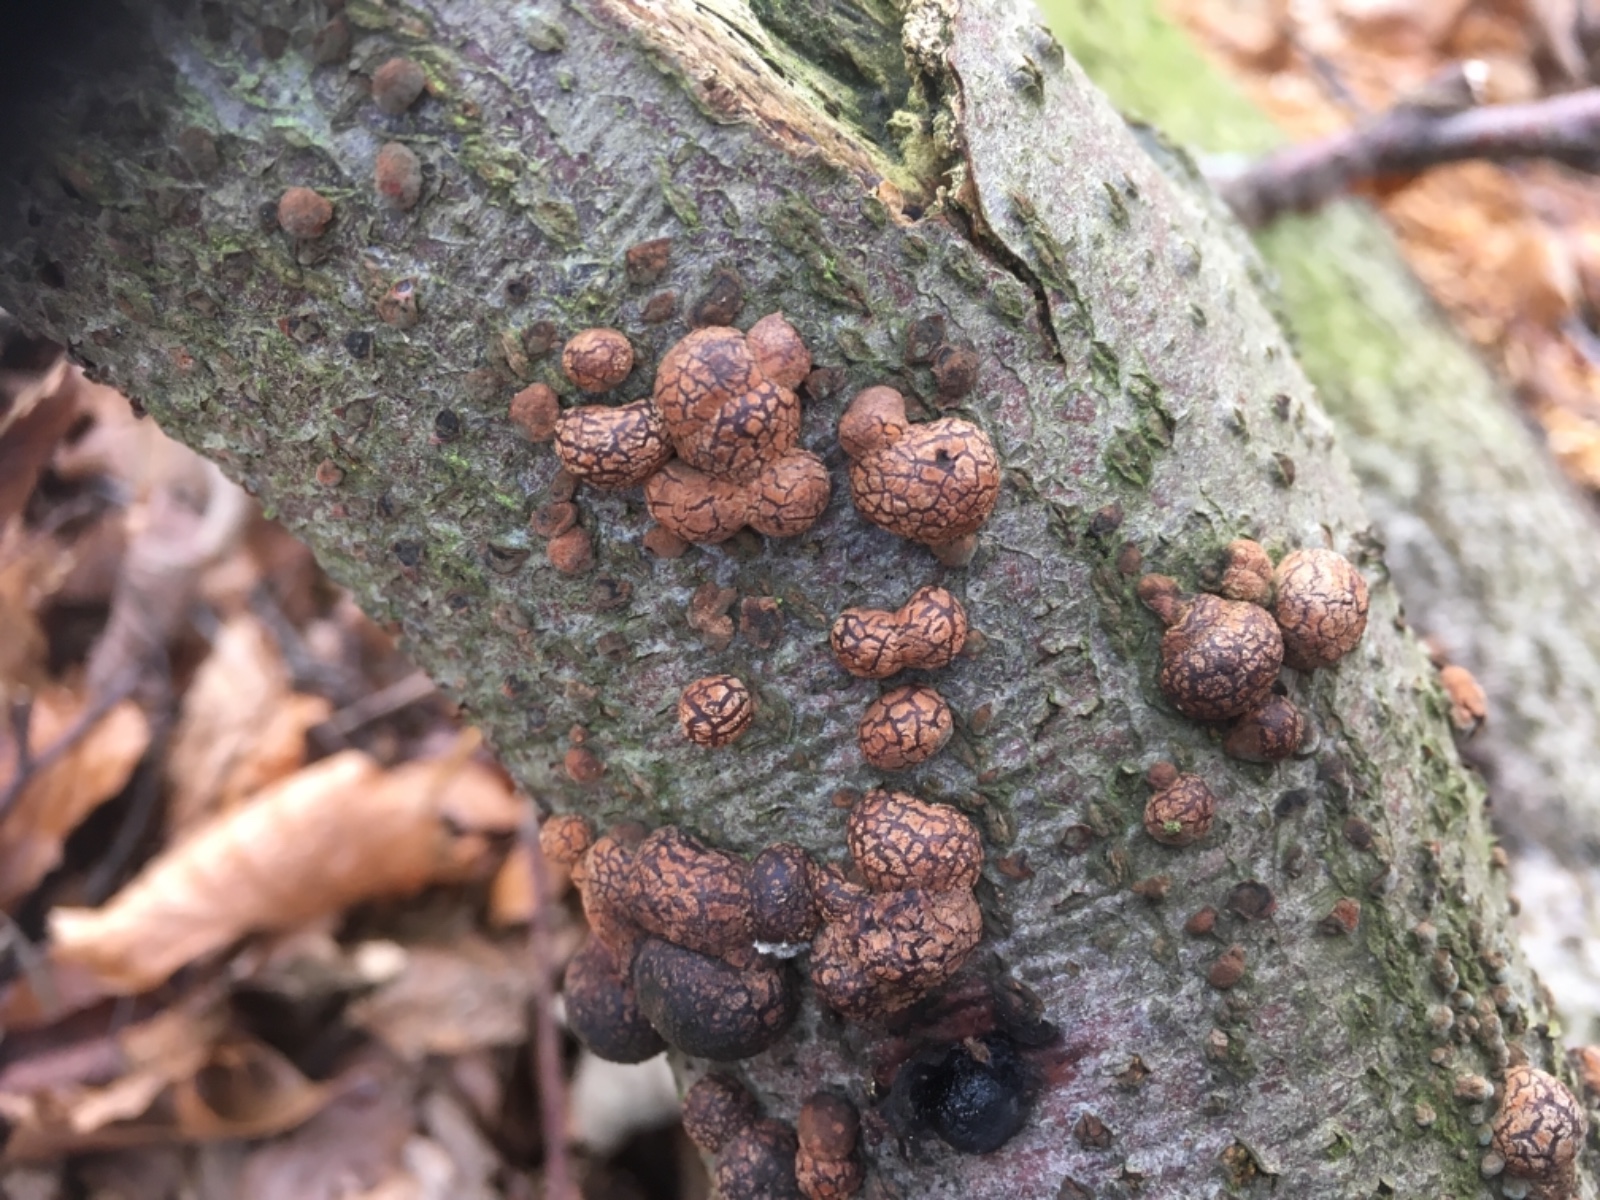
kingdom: Fungi
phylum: Ascomycota
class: Sordariomycetes
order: Xylariales
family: Hypoxylaceae
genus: Hypoxylon
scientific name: Hypoxylon fragiforme
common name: kuljordbær
